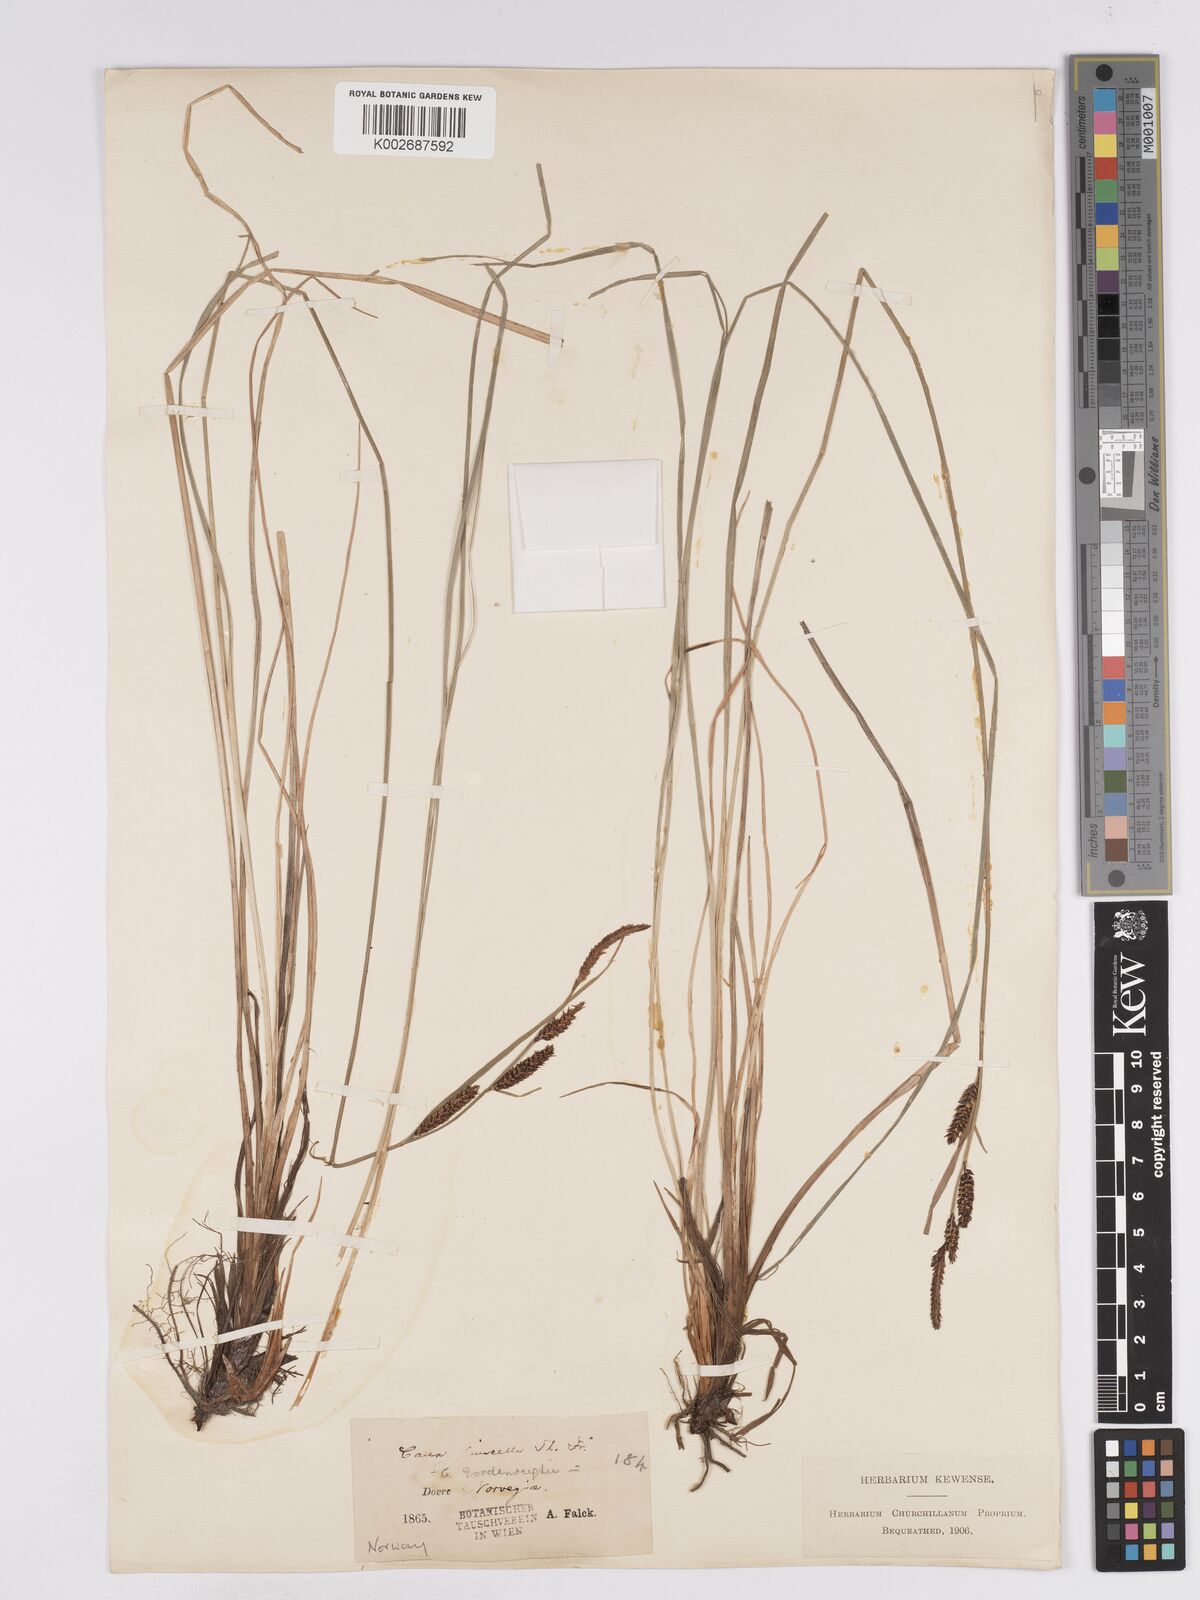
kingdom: Plantae
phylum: Tracheophyta
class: Liliopsida
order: Poales
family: Cyperaceae
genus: Carex
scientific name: Carex
